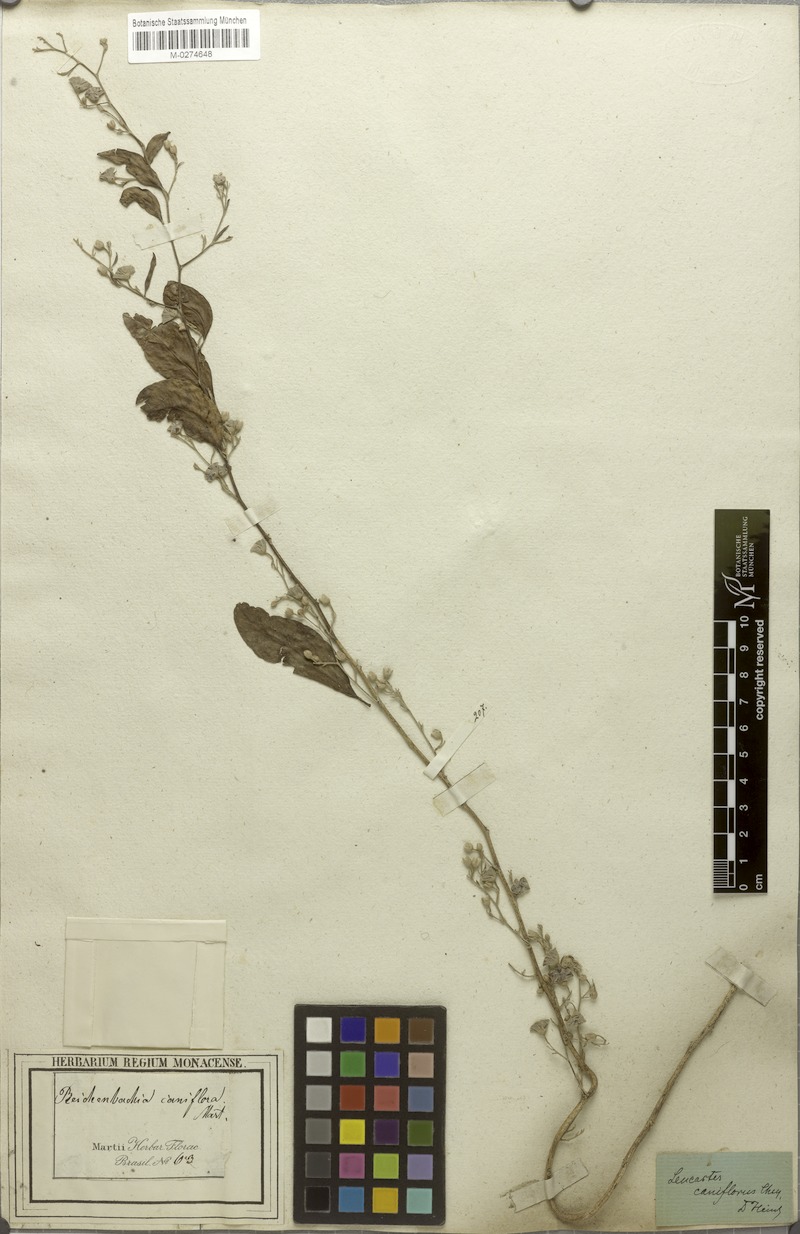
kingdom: Plantae
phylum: Tracheophyta
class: Magnoliopsida
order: Caryophyllales
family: Nyctaginaceae
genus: Leucaster
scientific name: Leucaster caniflorus
